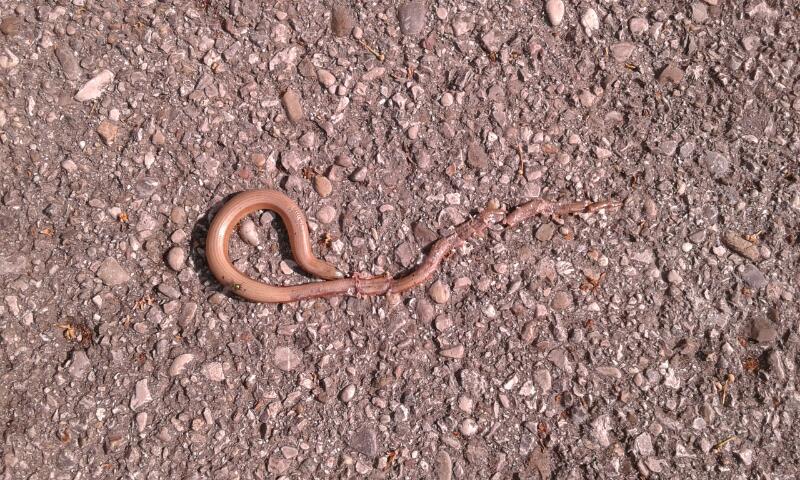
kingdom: Animalia
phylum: Chordata
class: Squamata
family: Anguidae
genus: Anguis
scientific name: Anguis fragilis
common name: Slow worm
